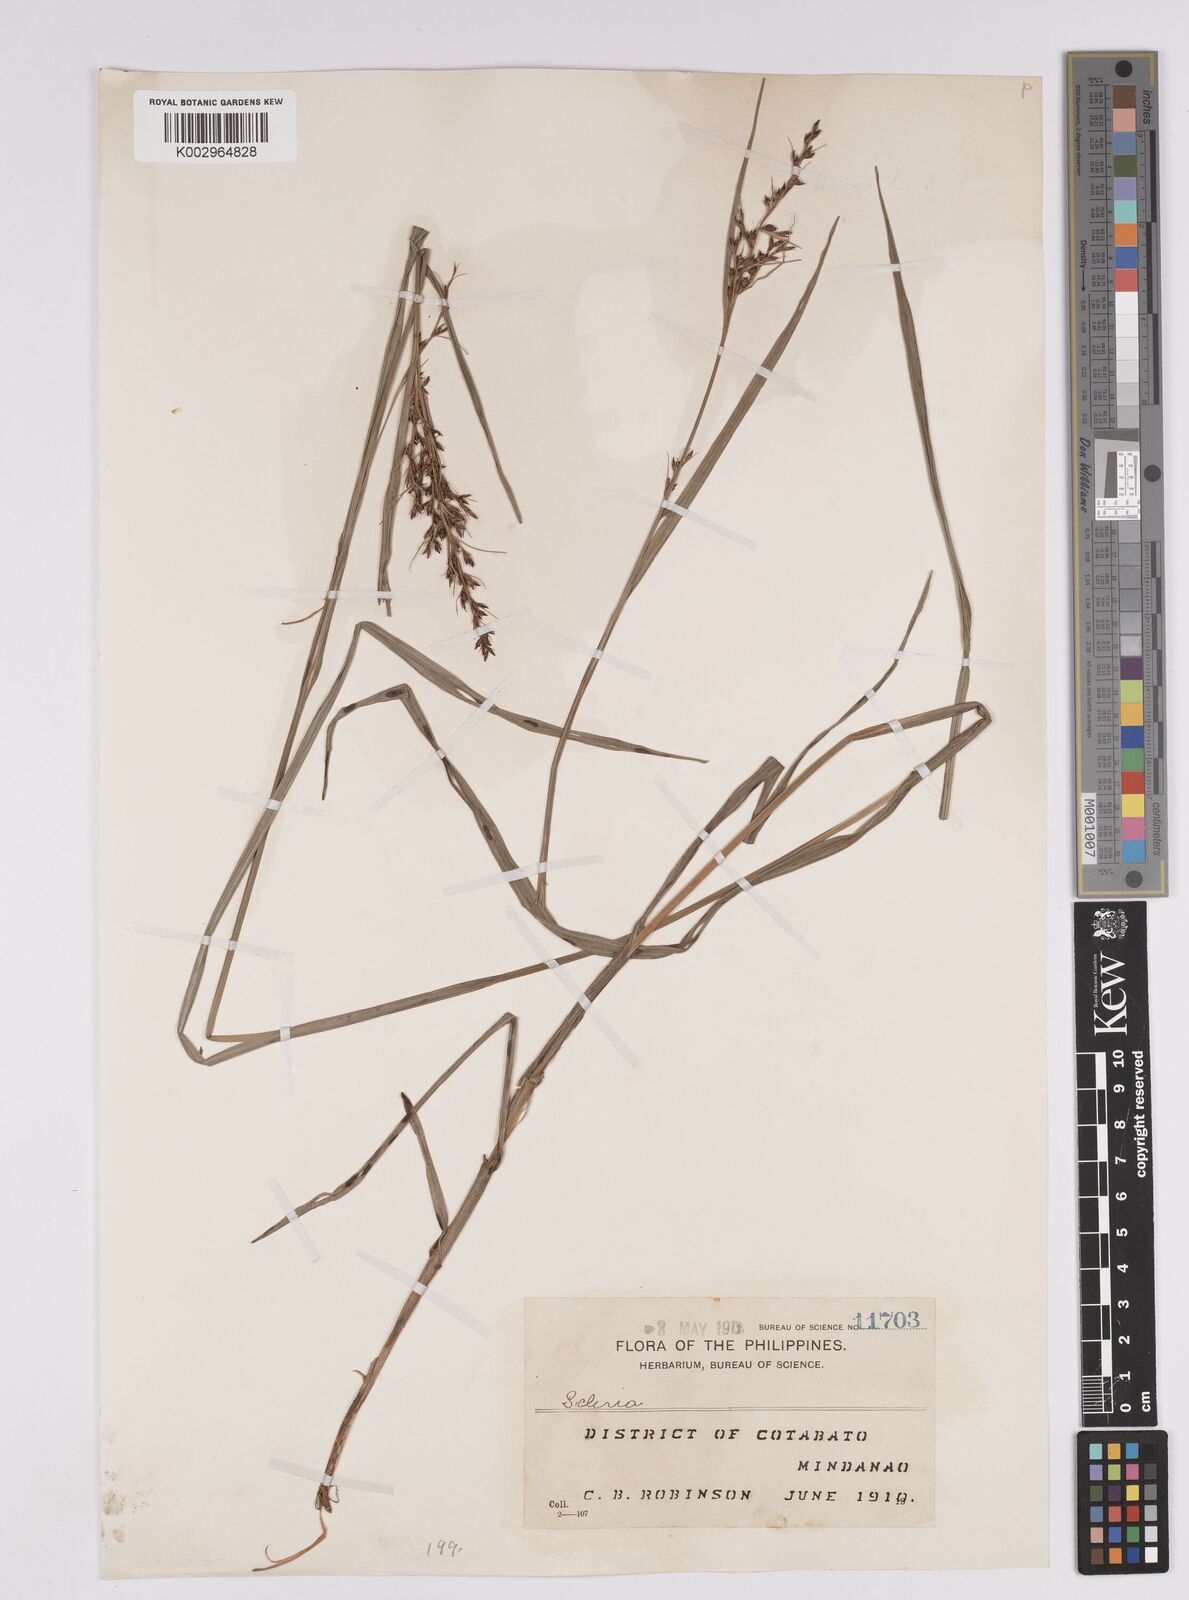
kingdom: Plantae
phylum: Tracheophyta
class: Liliopsida
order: Poales
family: Cyperaceae
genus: Scleria
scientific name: Scleria
